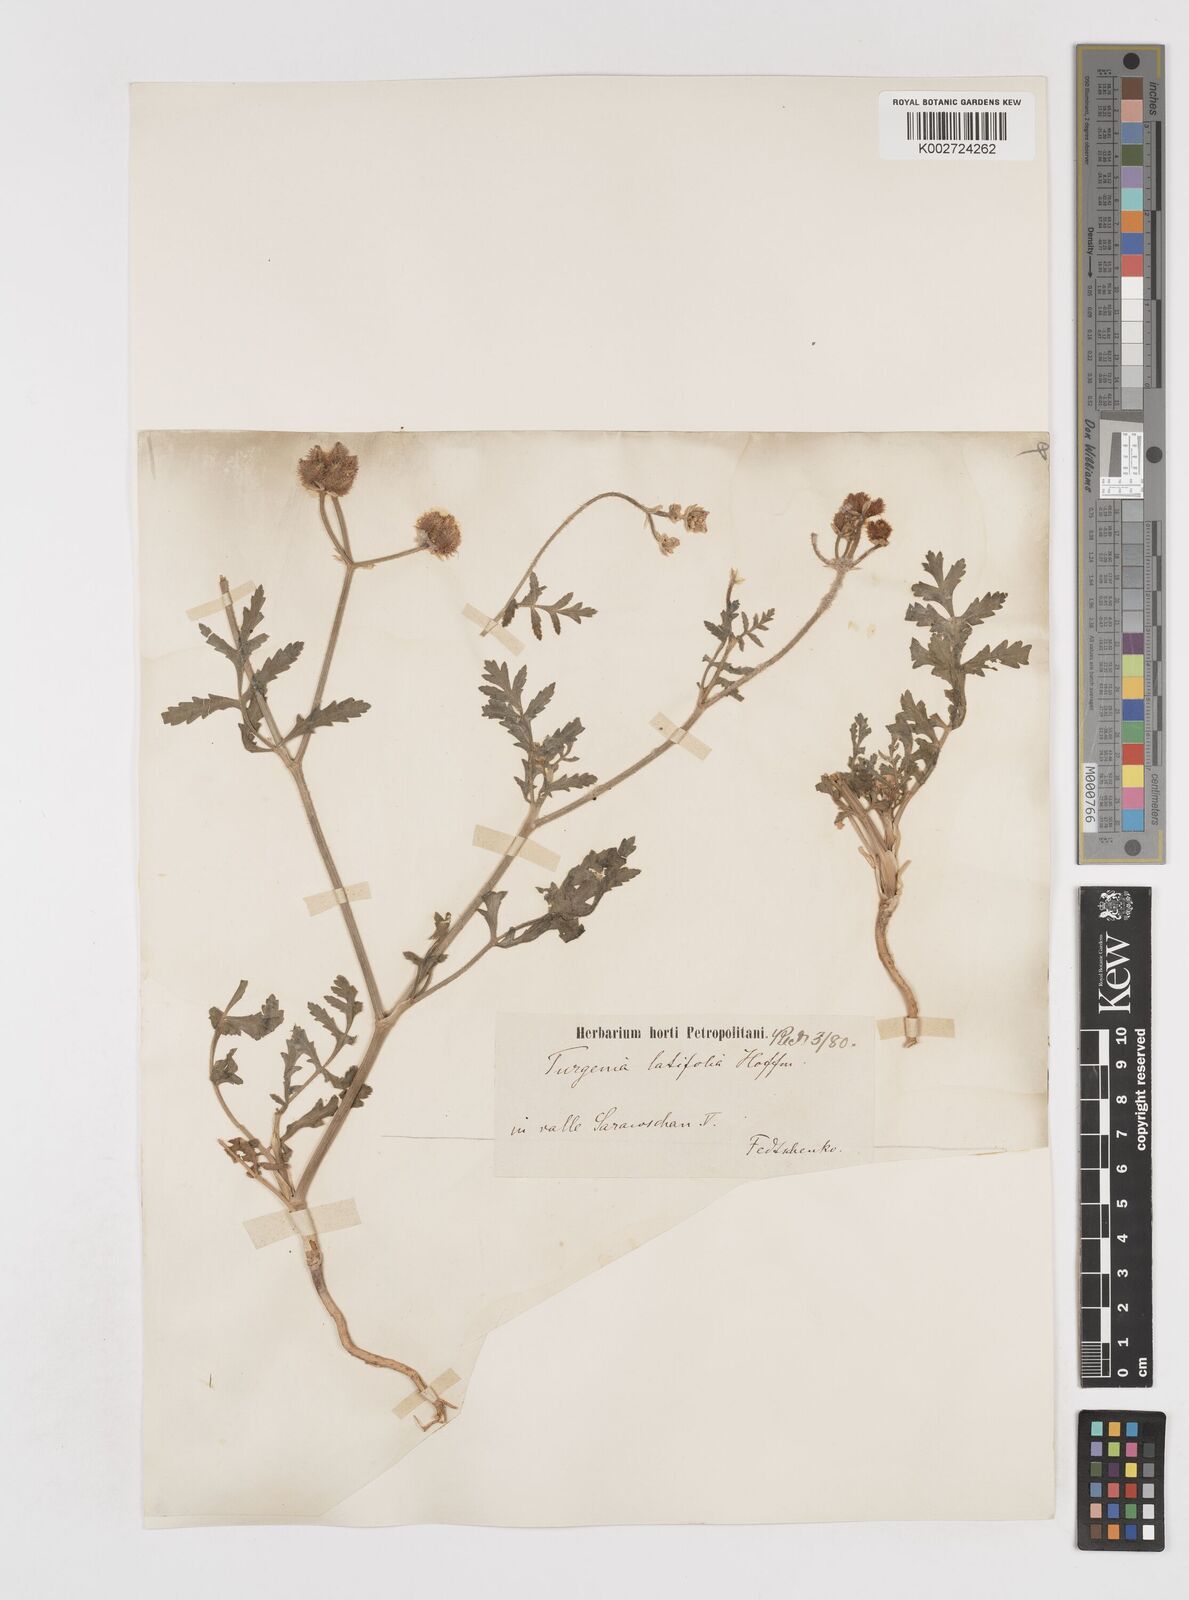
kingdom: Plantae
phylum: Tracheophyta
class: Magnoliopsida
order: Apiales
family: Apiaceae
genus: Turgenia
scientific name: Turgenia latifolia
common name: Greater bur-parsley
